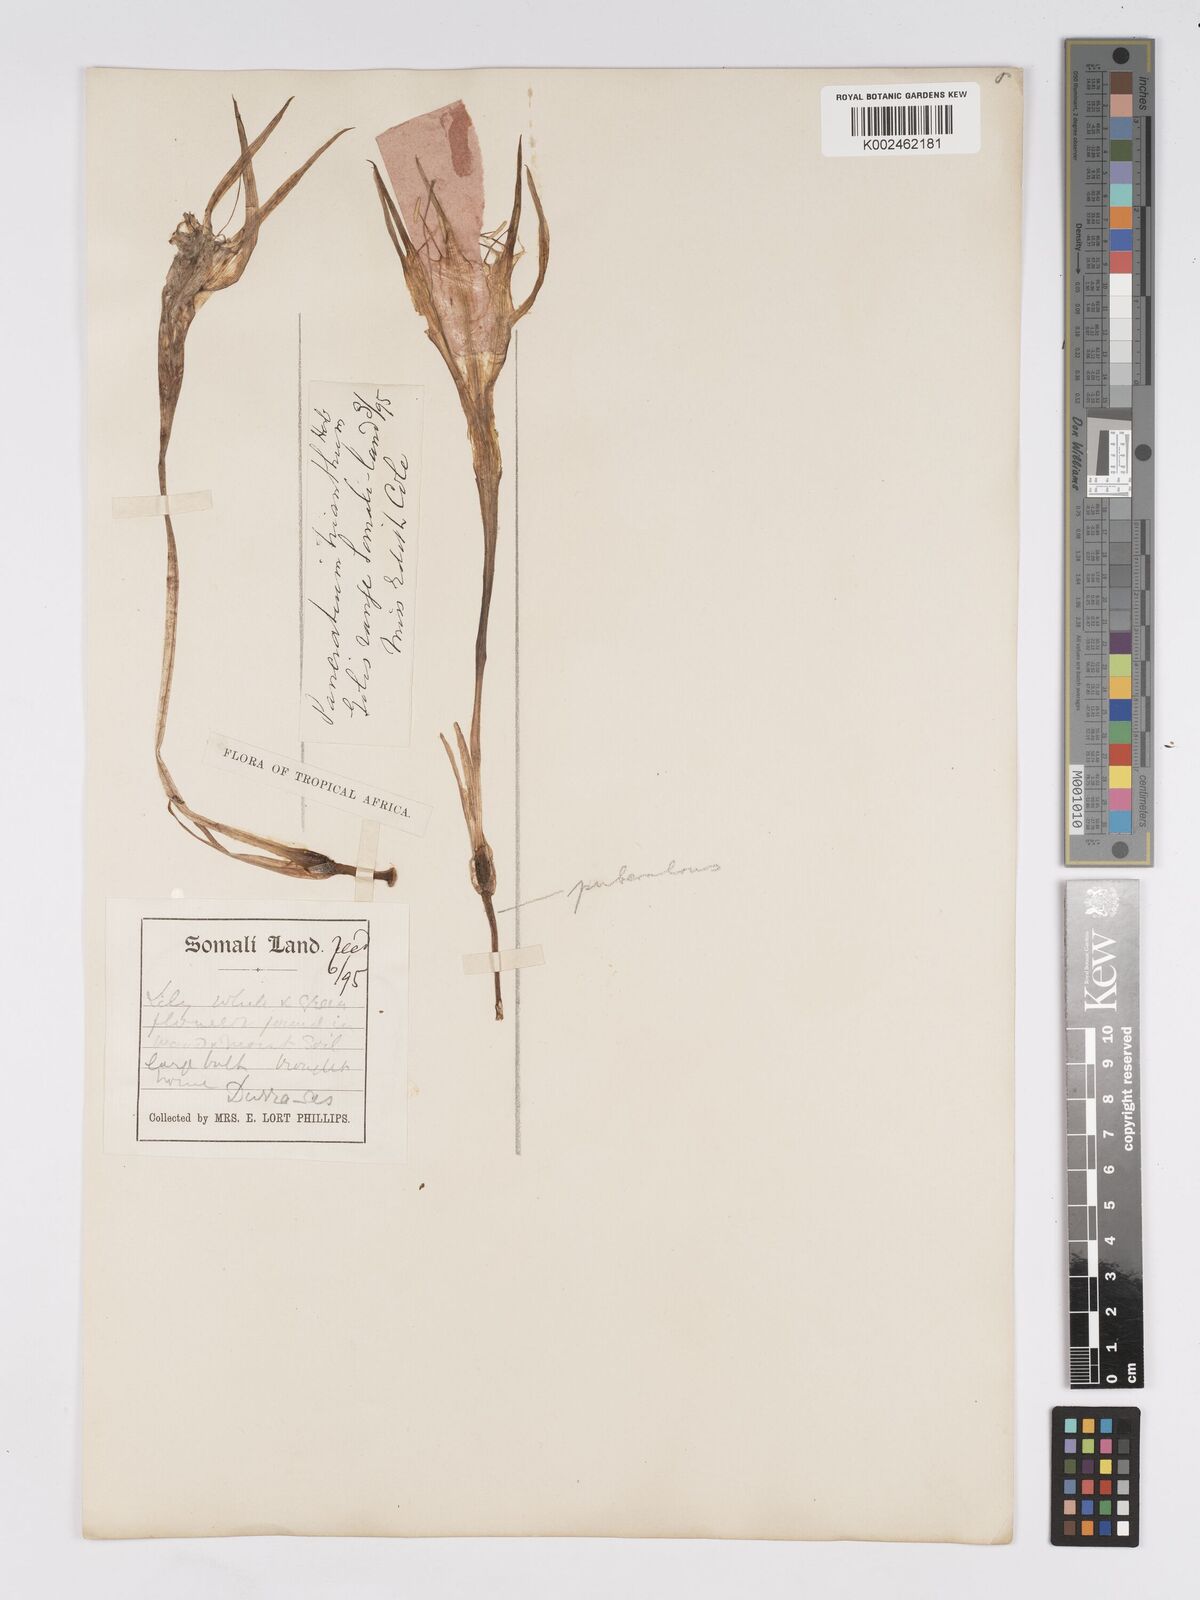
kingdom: Plantae
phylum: Tracheophyta
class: Liliopsida
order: Asparagales
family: Amaryllidaceae
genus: Pancratium
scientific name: Pancratium trianthum
